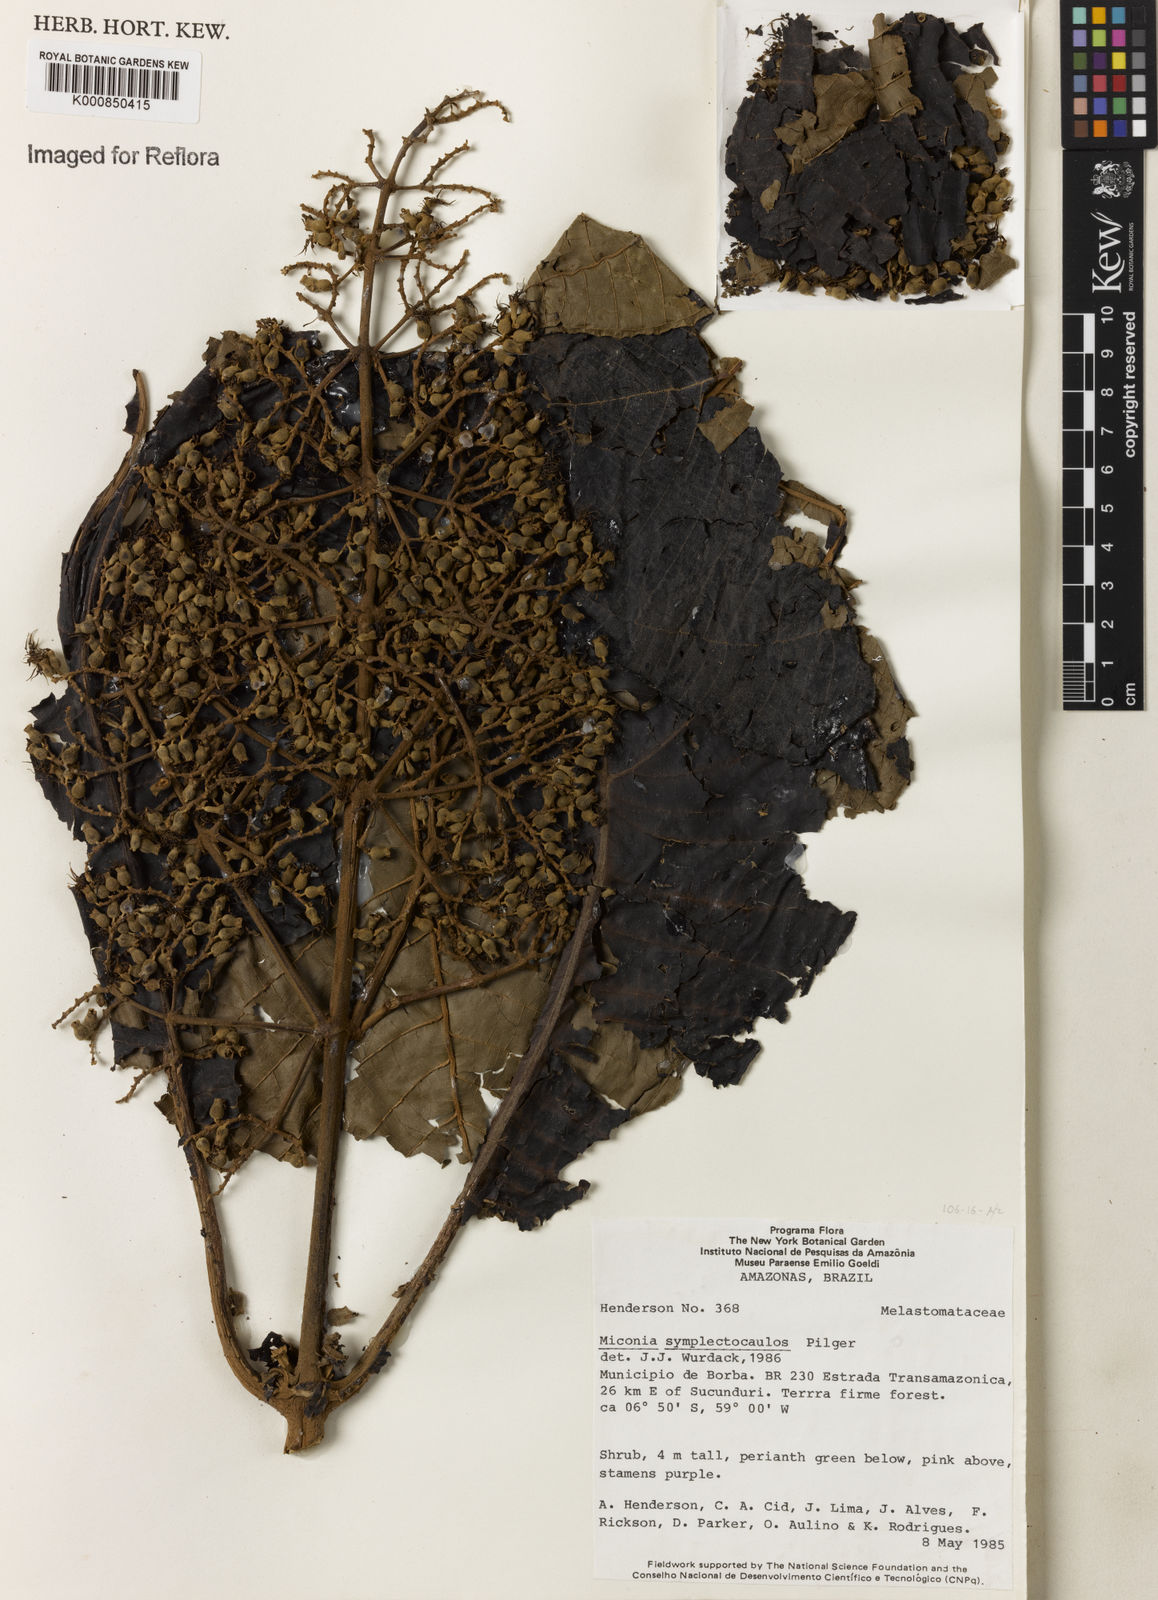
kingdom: Plantae
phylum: Tracheophyta
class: Magnoliopsida
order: Myrtales
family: Melastomataceae
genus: Miconia
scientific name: Miconia symplectocaulos
